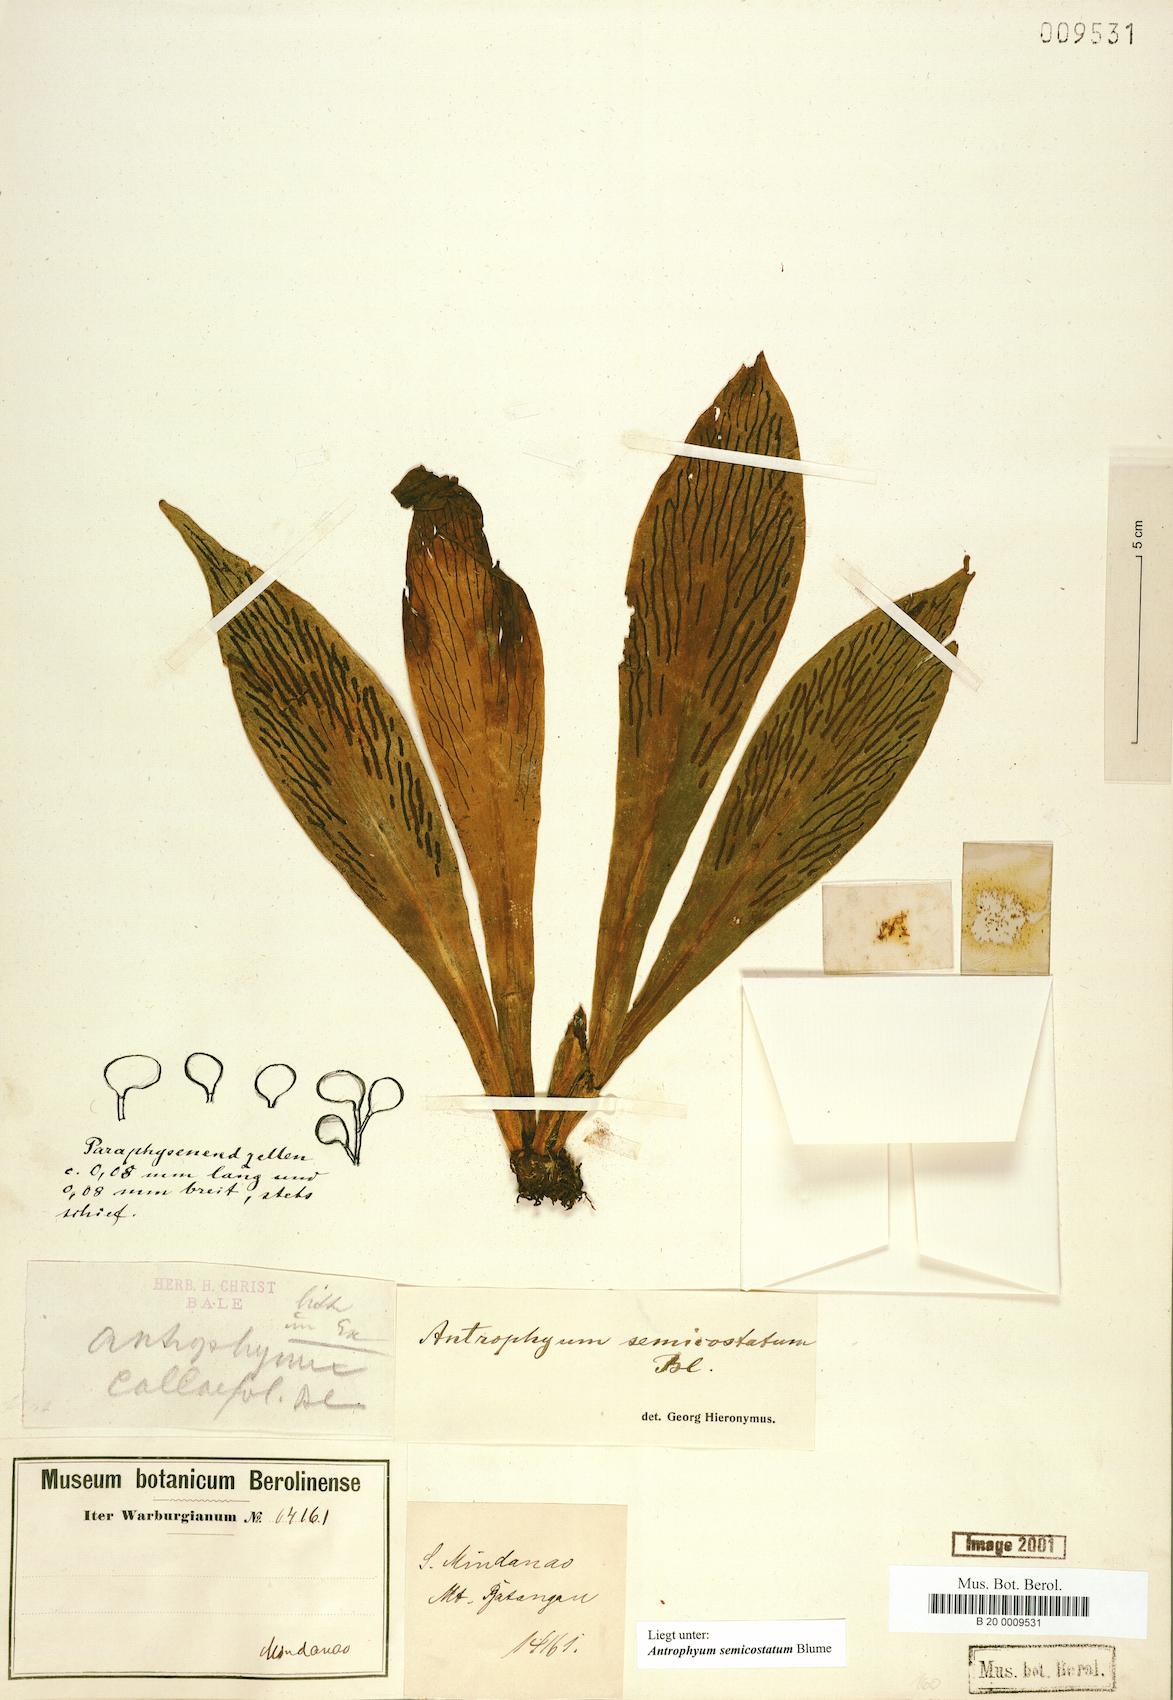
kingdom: Plantae
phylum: Tracheophyta
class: Polypodiopsida
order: Polypodiales
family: Pteridaceae
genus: Antrophyum
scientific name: Antrophyum semicostatum
